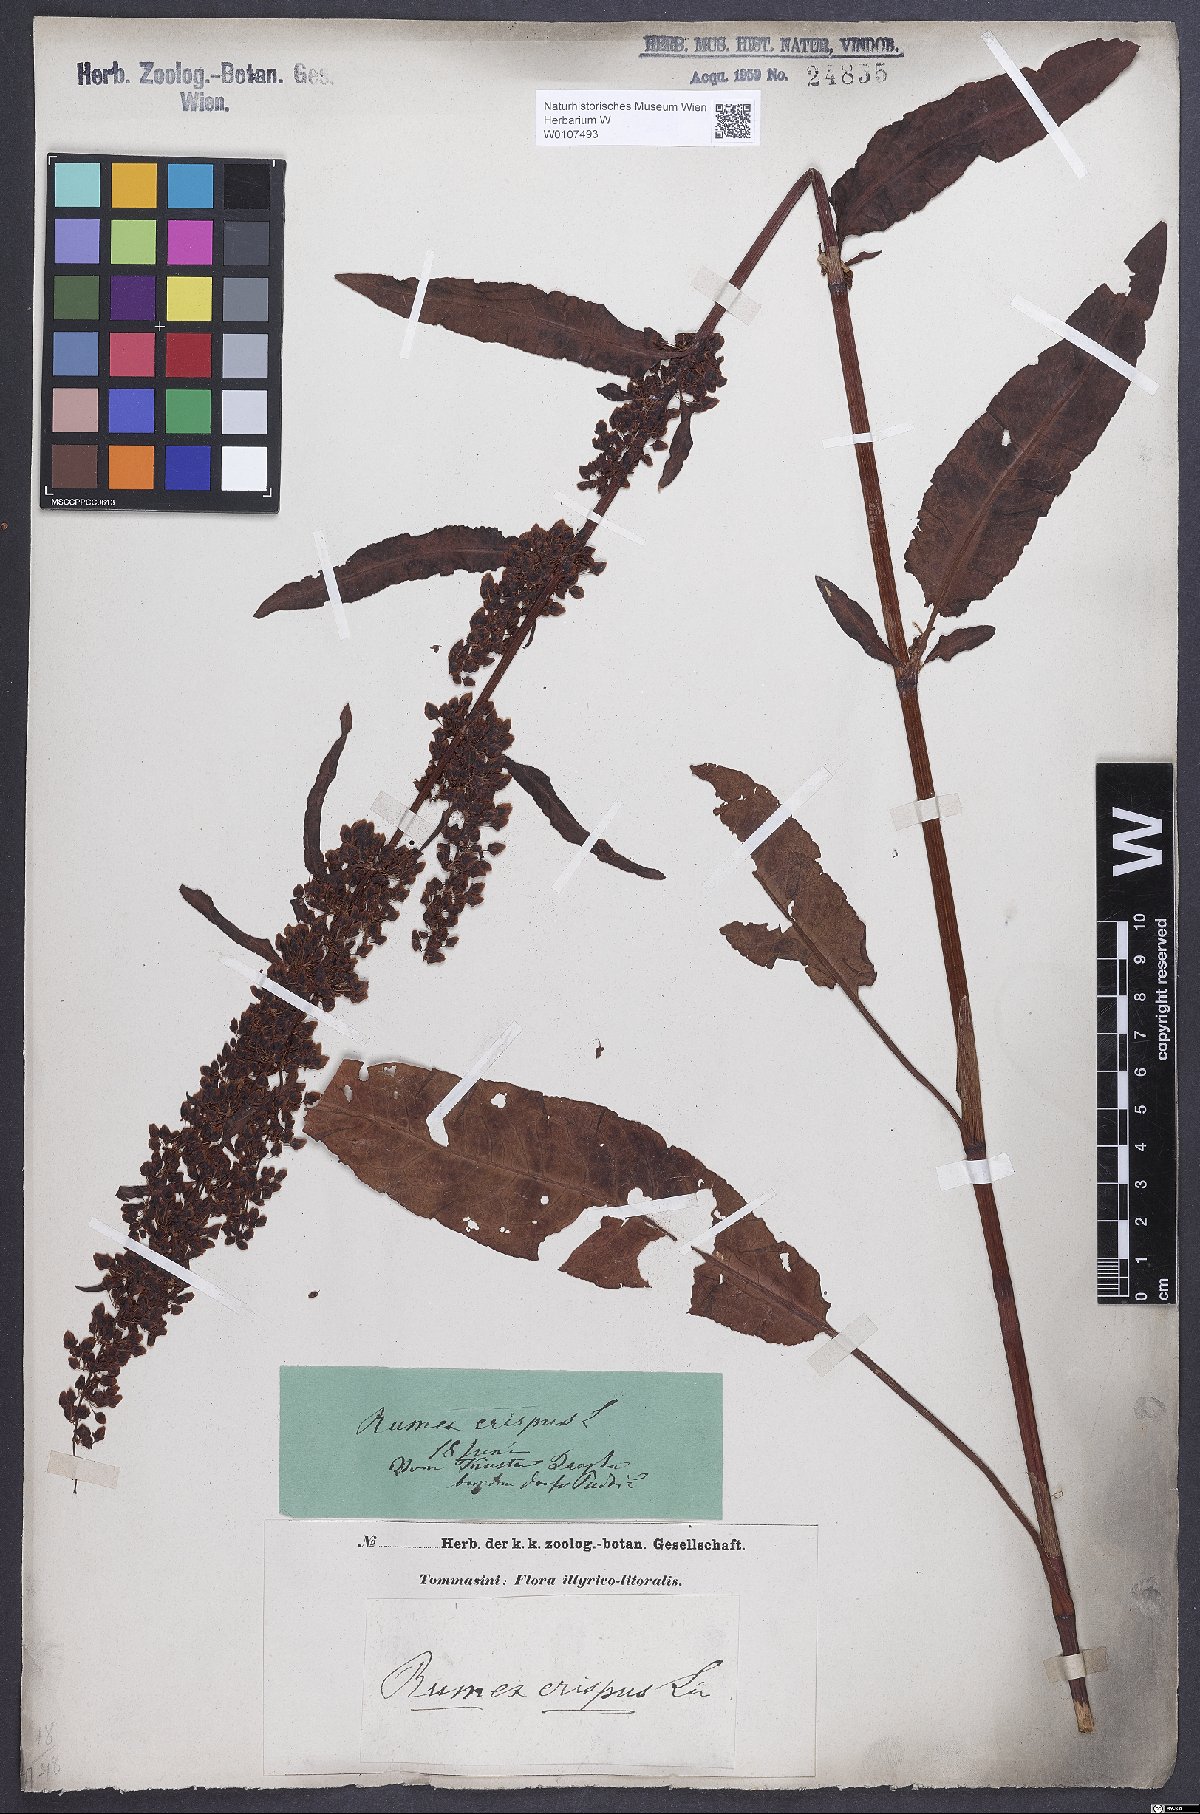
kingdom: Plantae
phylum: Tracheophyta
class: Magnoliopsida
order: Caryophyllales
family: Polygonaceae
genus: Rumex
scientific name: Rumex crispus
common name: Curled dock
